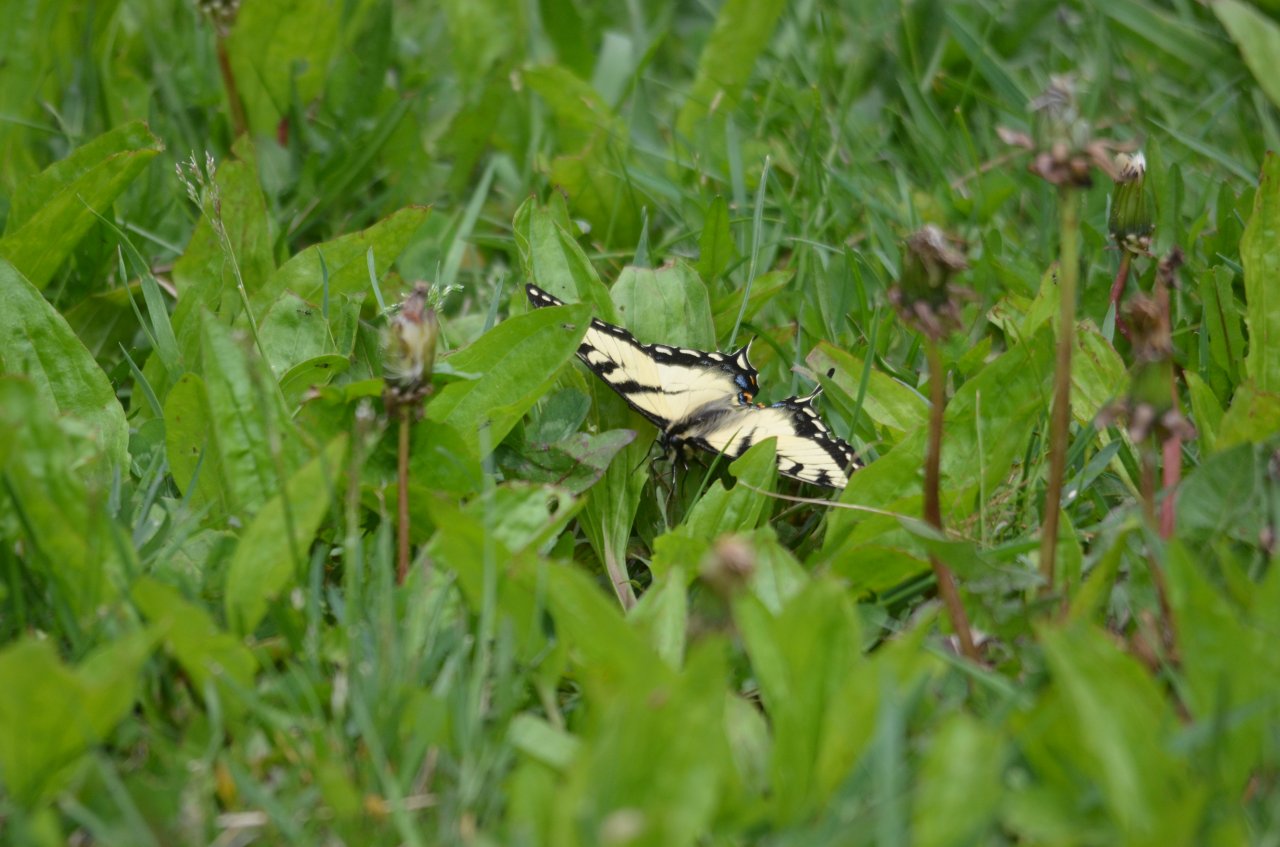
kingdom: Animalia
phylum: Arthropoda
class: Insecta
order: Lepidoptera
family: Papilionidae
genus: Pterourus
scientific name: Pterourus glaucus
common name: Eastern Tiger Swallowtail
